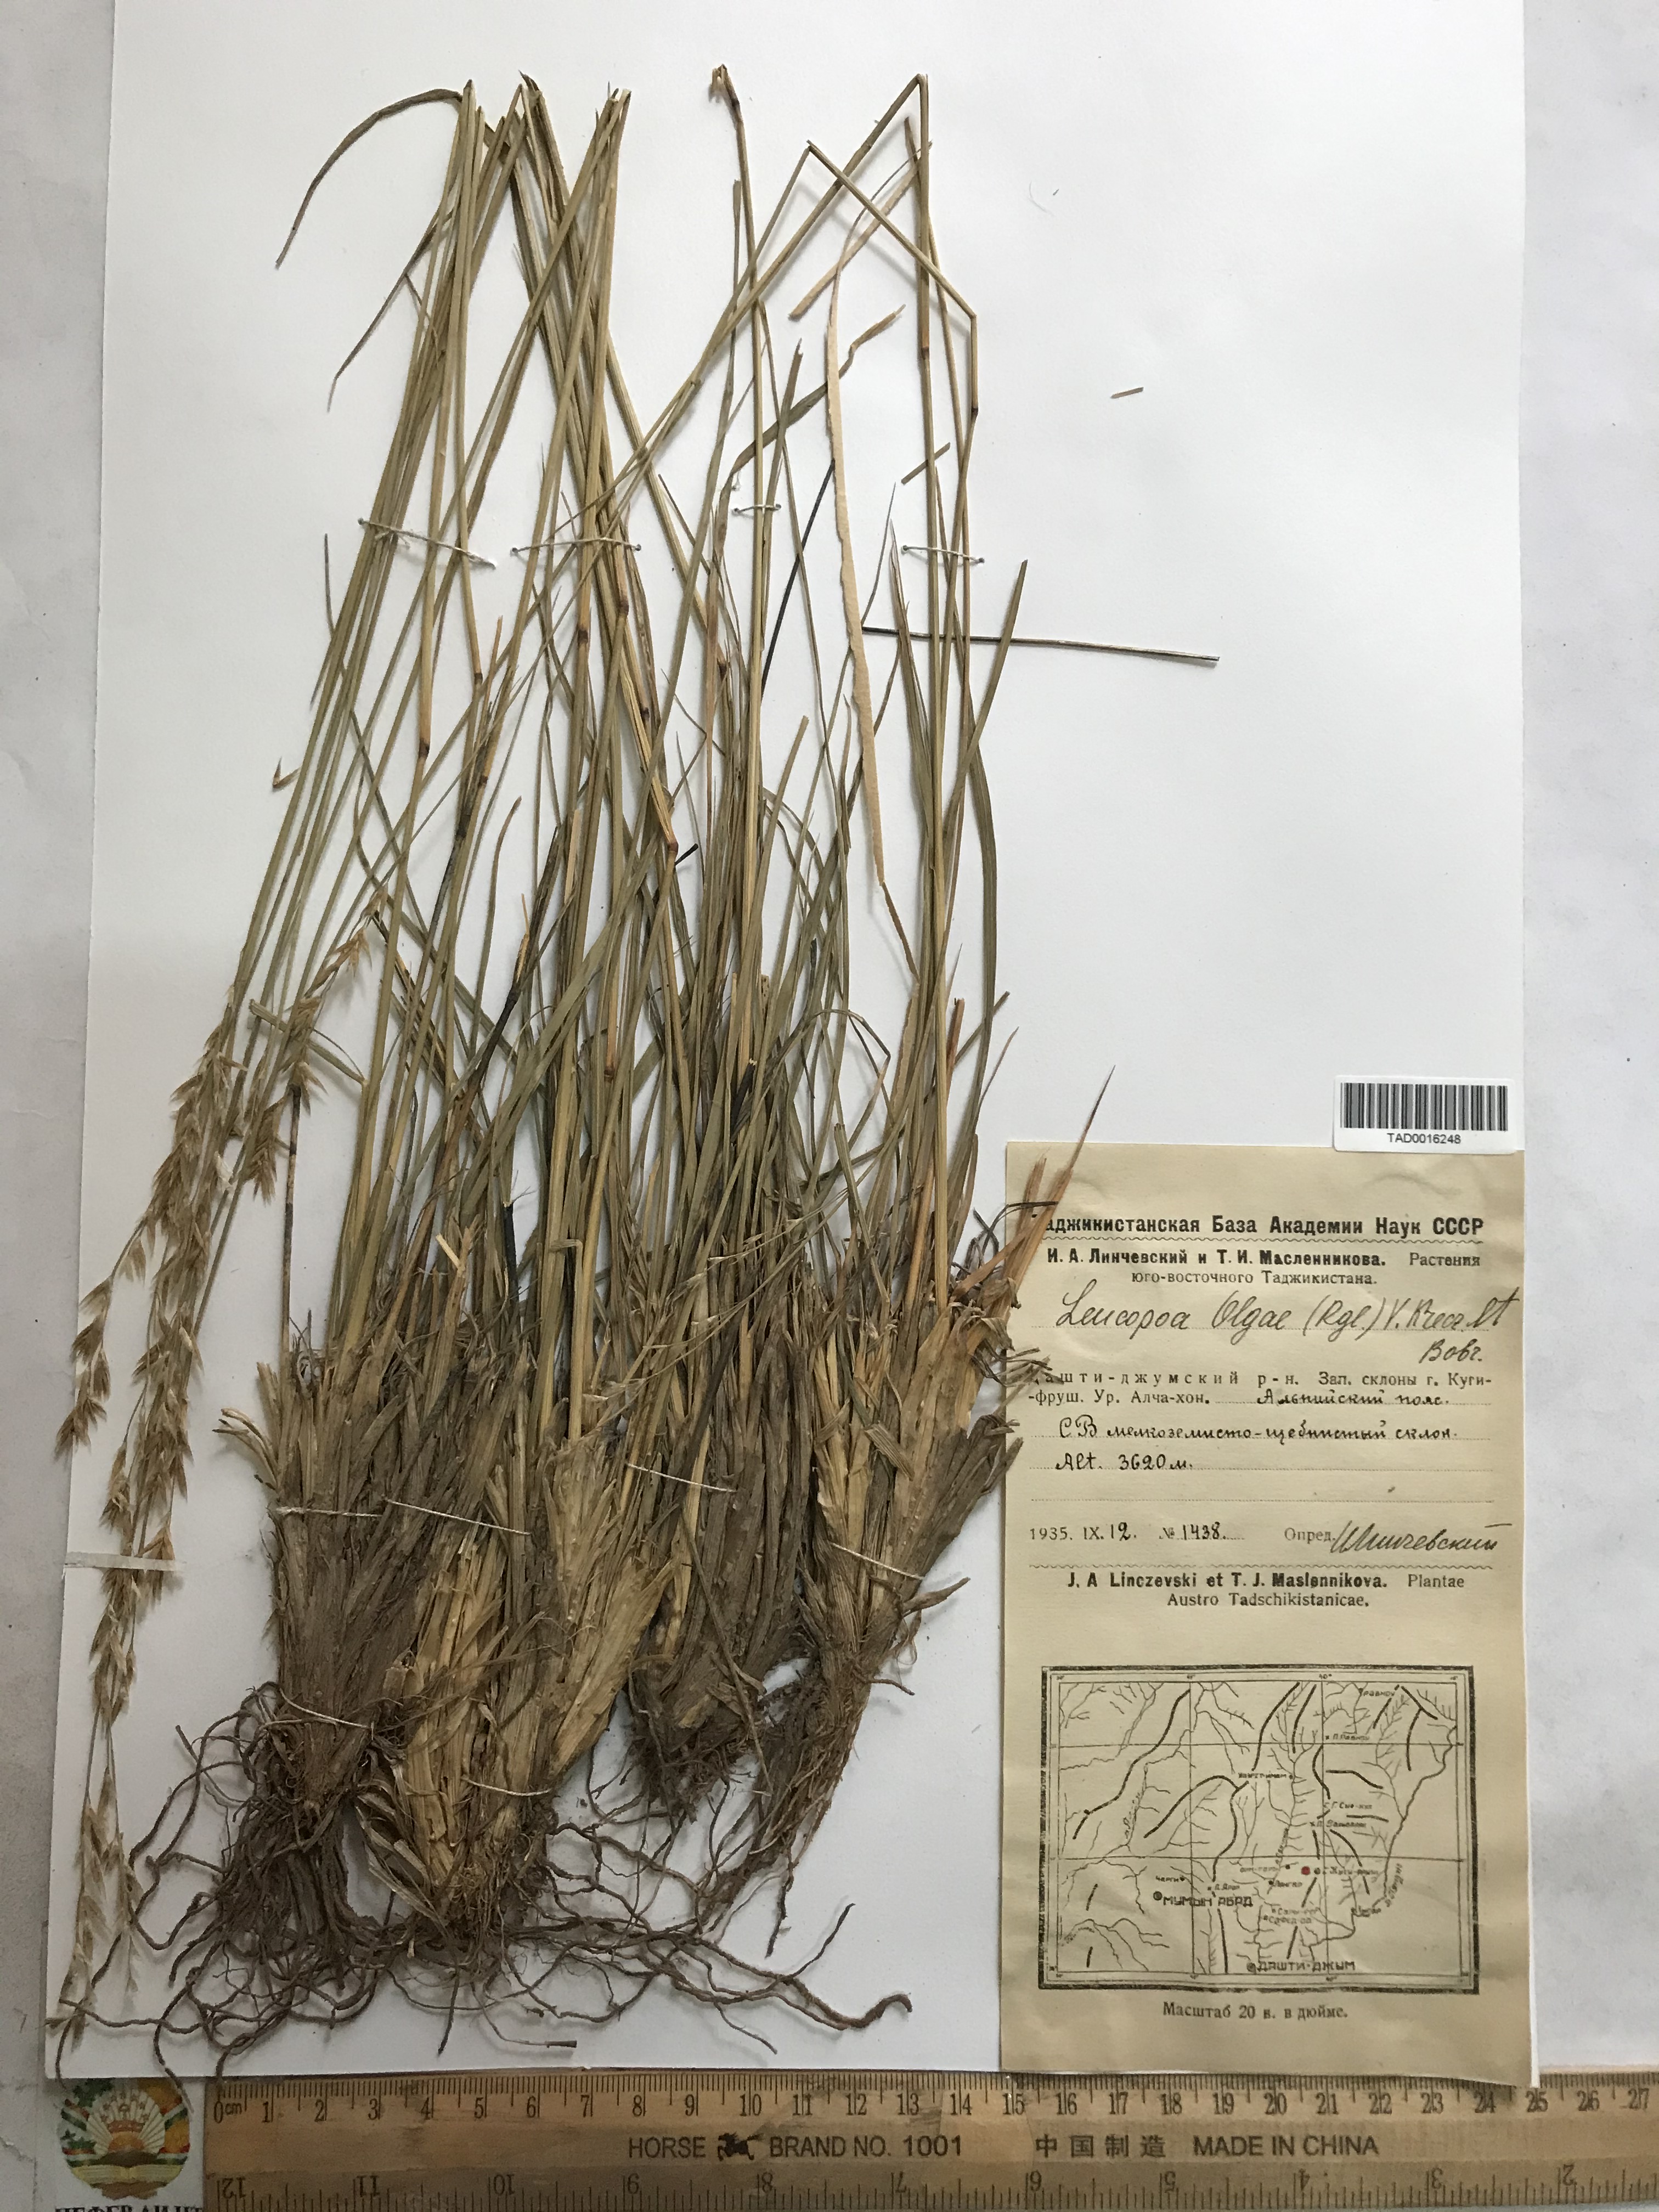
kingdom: Plantae
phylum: Tracheophyta
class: Liliopsida
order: Poales
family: Poaceae
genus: Festuca
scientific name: Festuca
